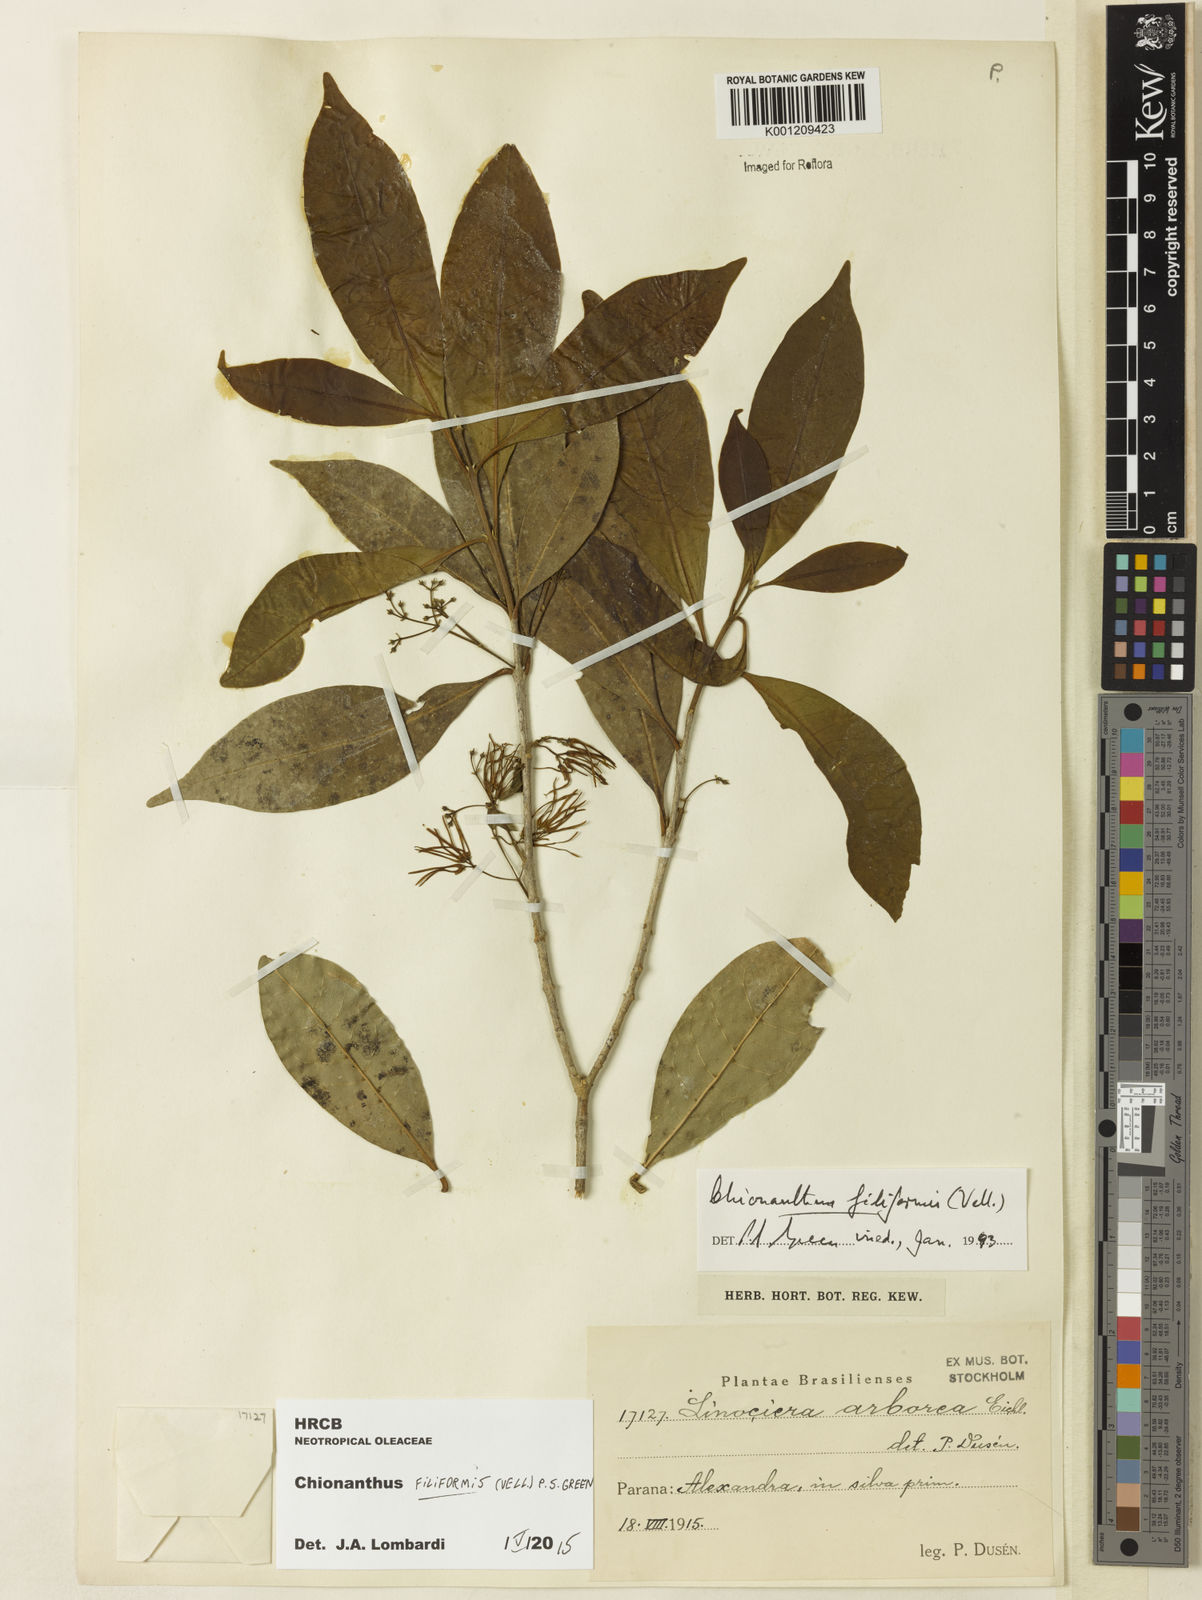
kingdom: Plantae
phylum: Tracheophyta
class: Magnoliopsida
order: Lamiales
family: Oleaceae
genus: Chionanthus
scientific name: Chionanthus filiformis
